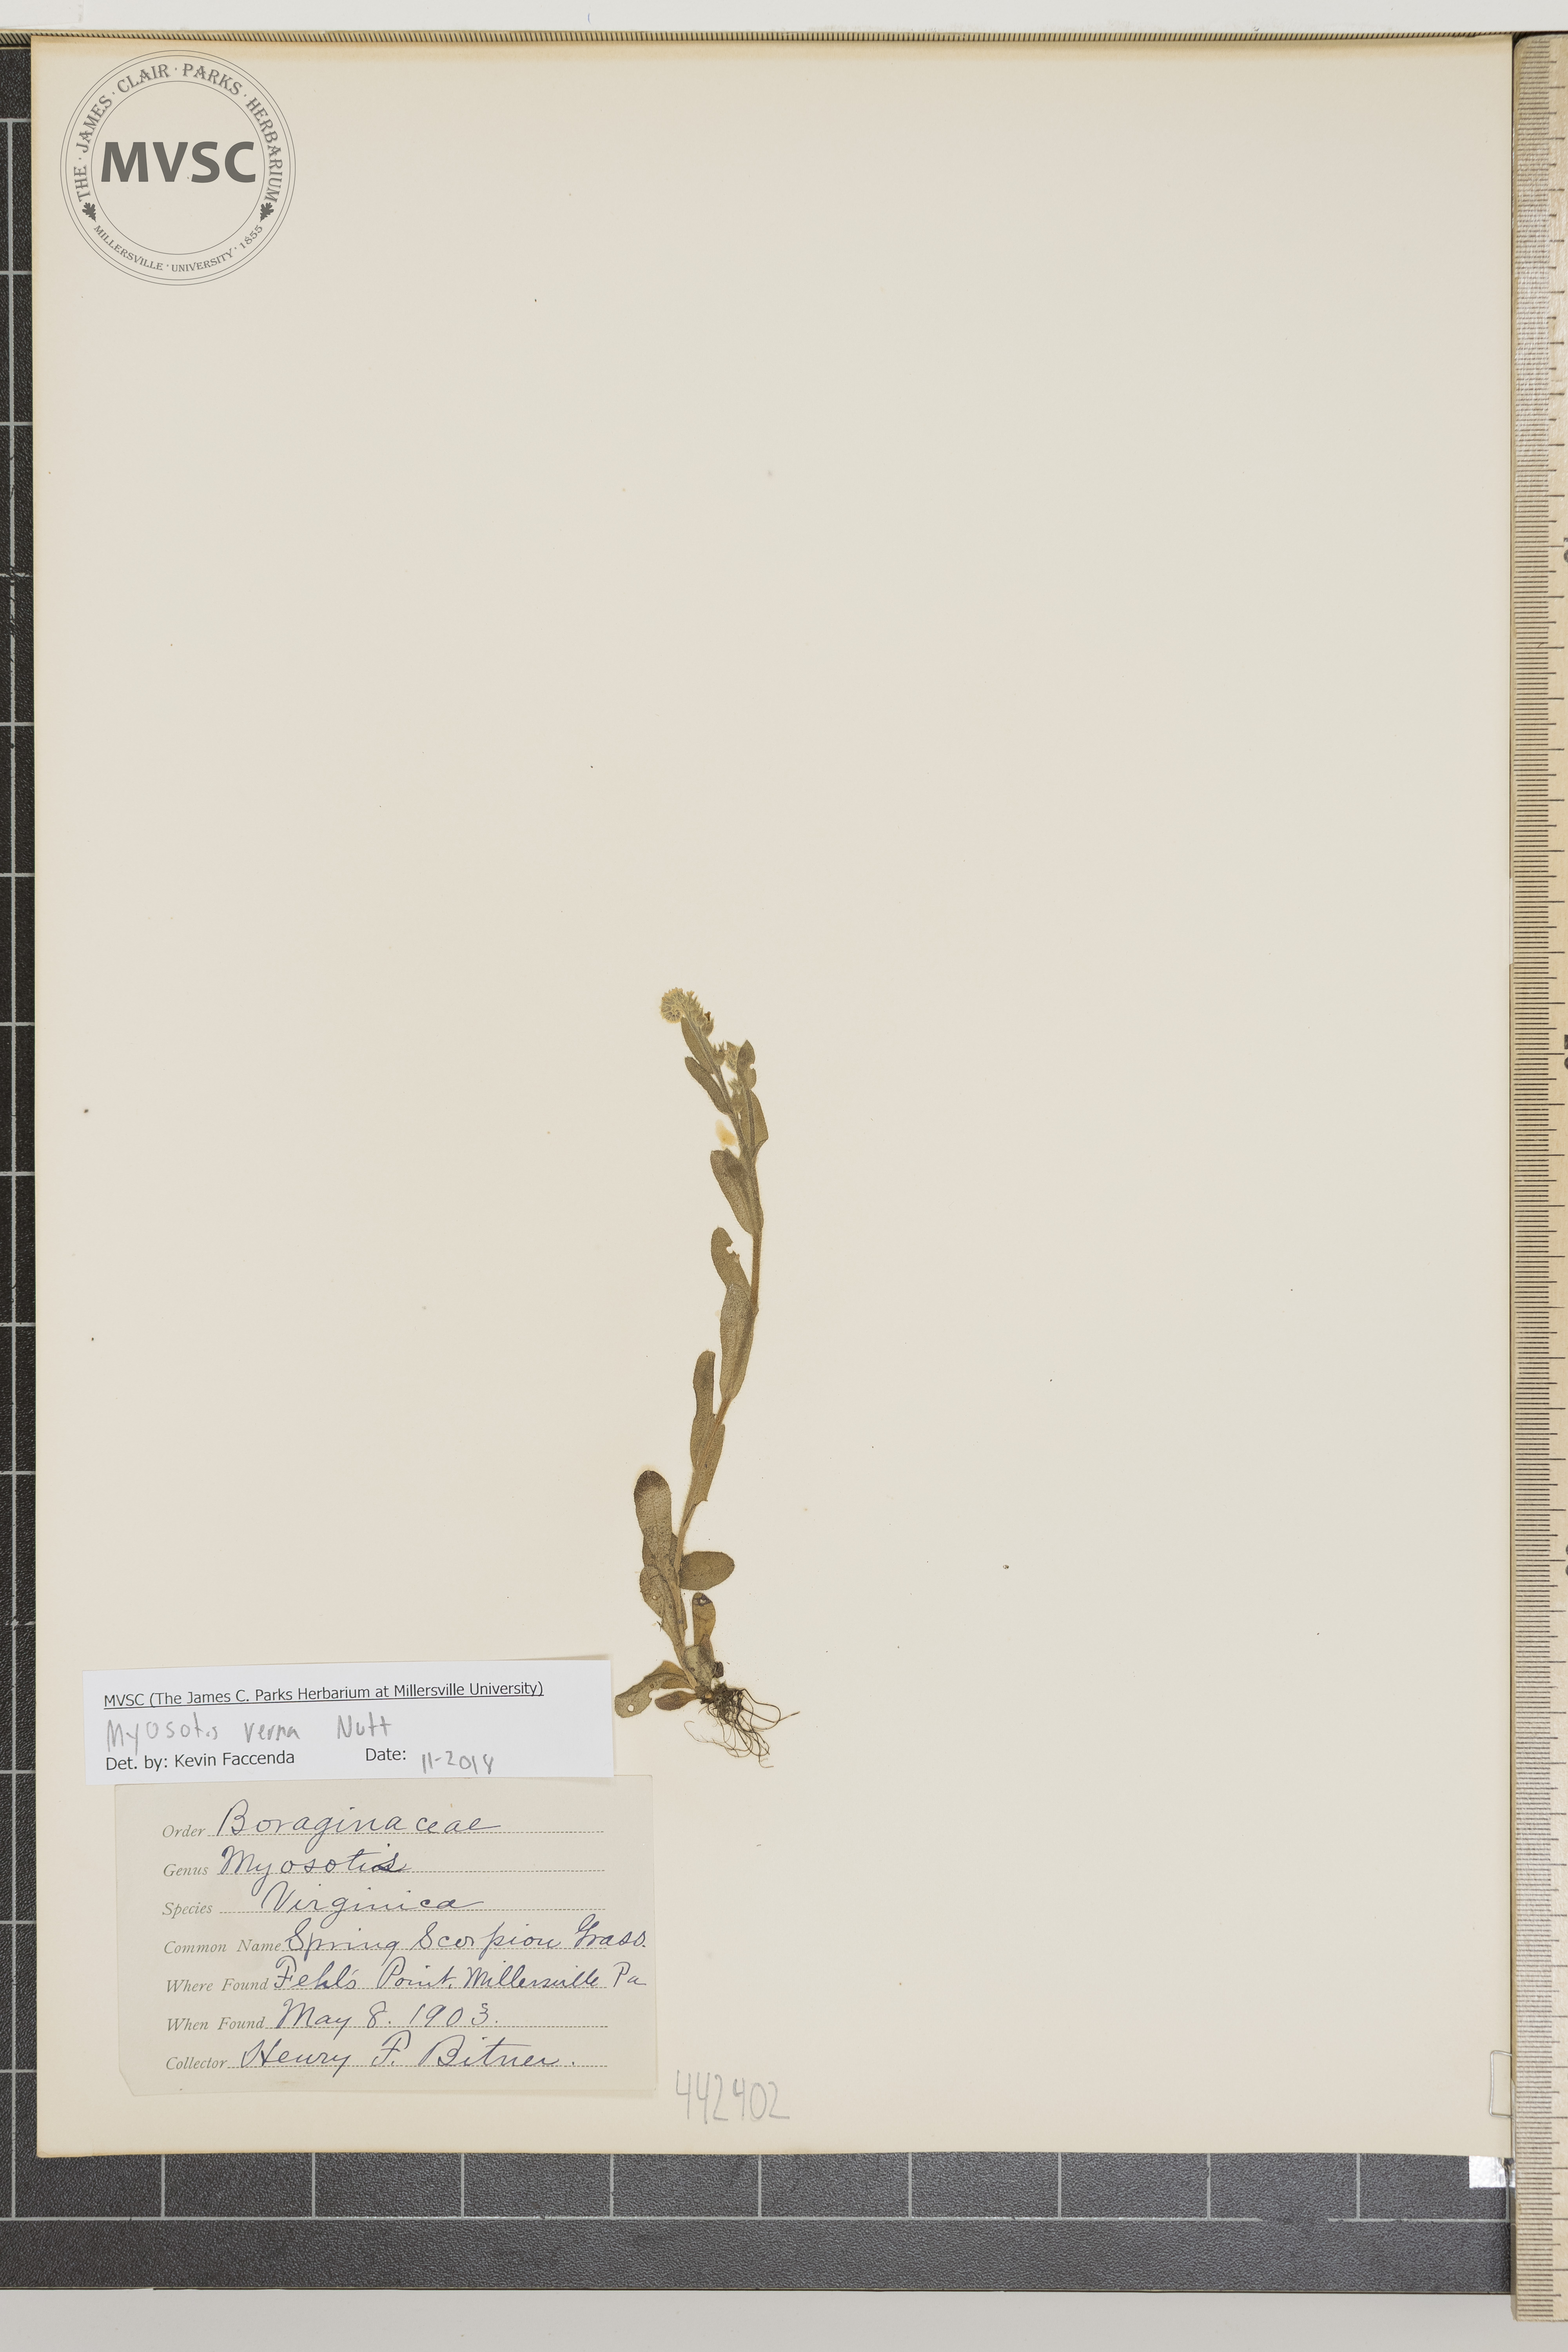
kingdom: Plantae
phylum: Tracheophyta
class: Magnoliopsida
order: Boraginales
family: Boraginaceae
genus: Myosotis
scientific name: Myosotis verna
